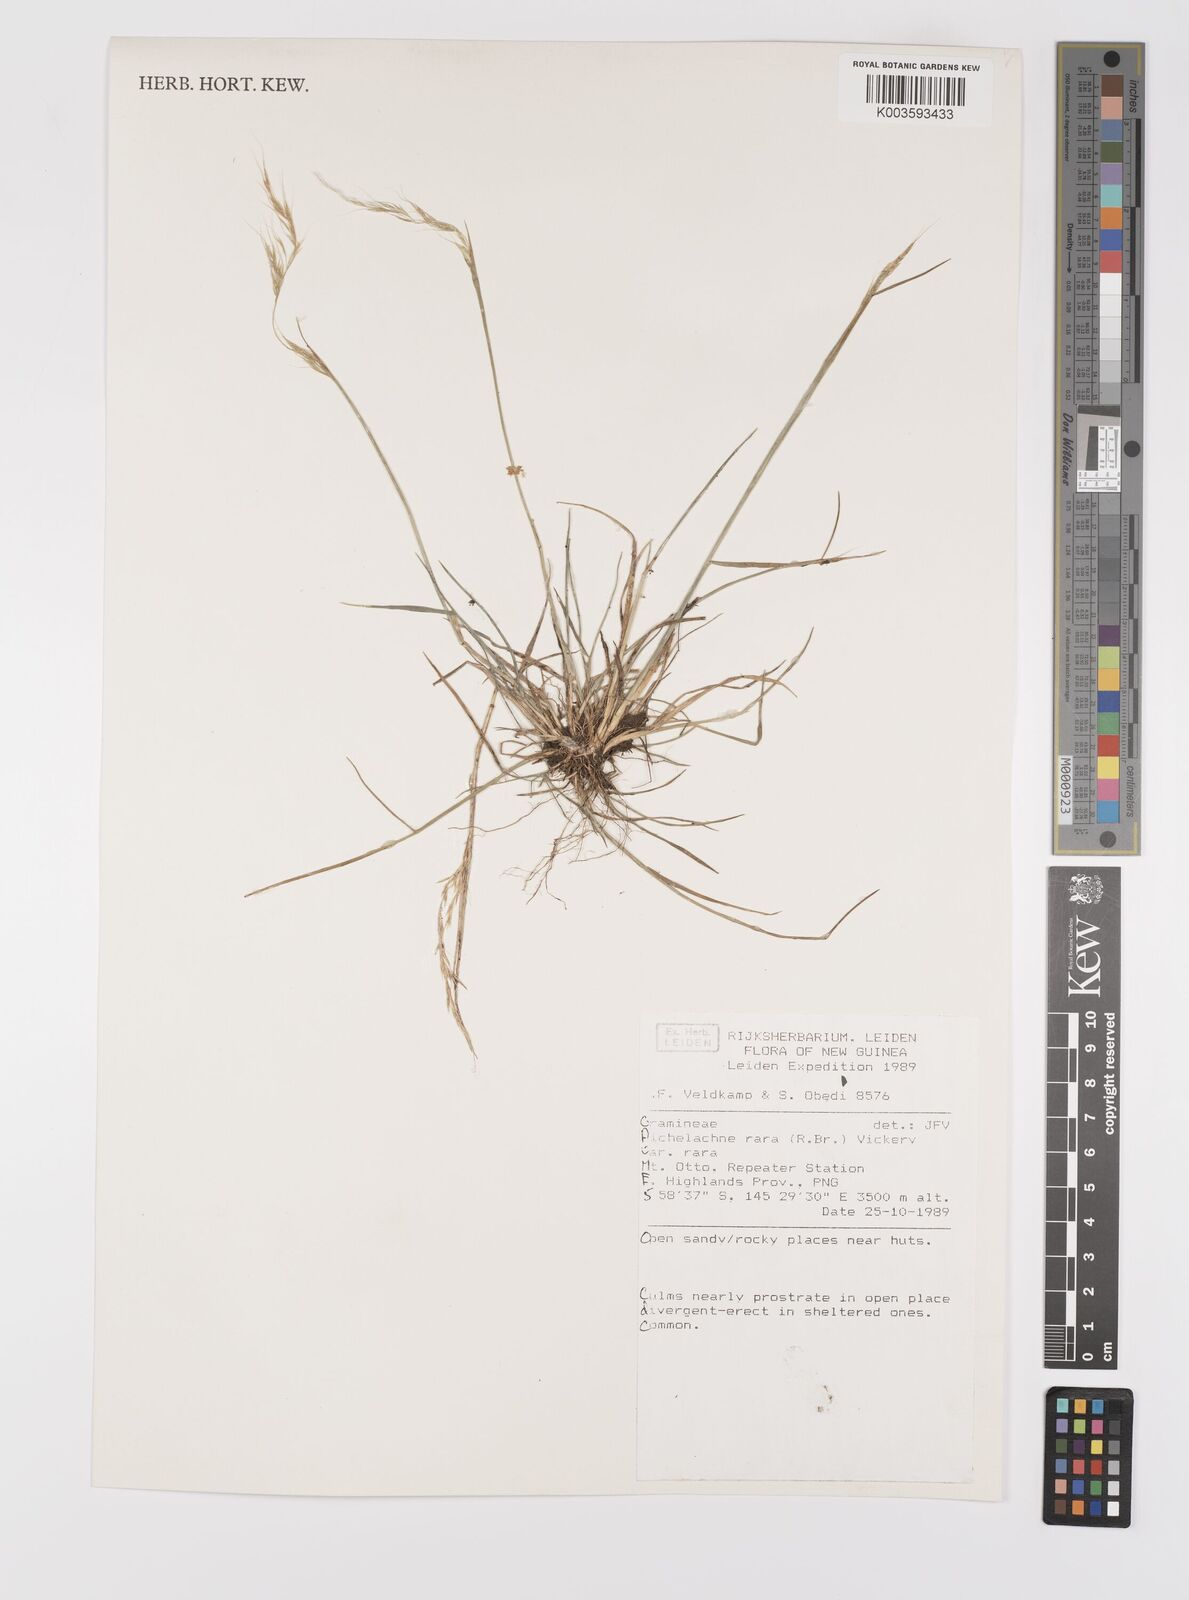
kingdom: Plantae
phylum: Tracheophyta
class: Liliopsida
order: Poales
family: Poaceae
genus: Dichelachne
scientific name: Dichelachne rara
